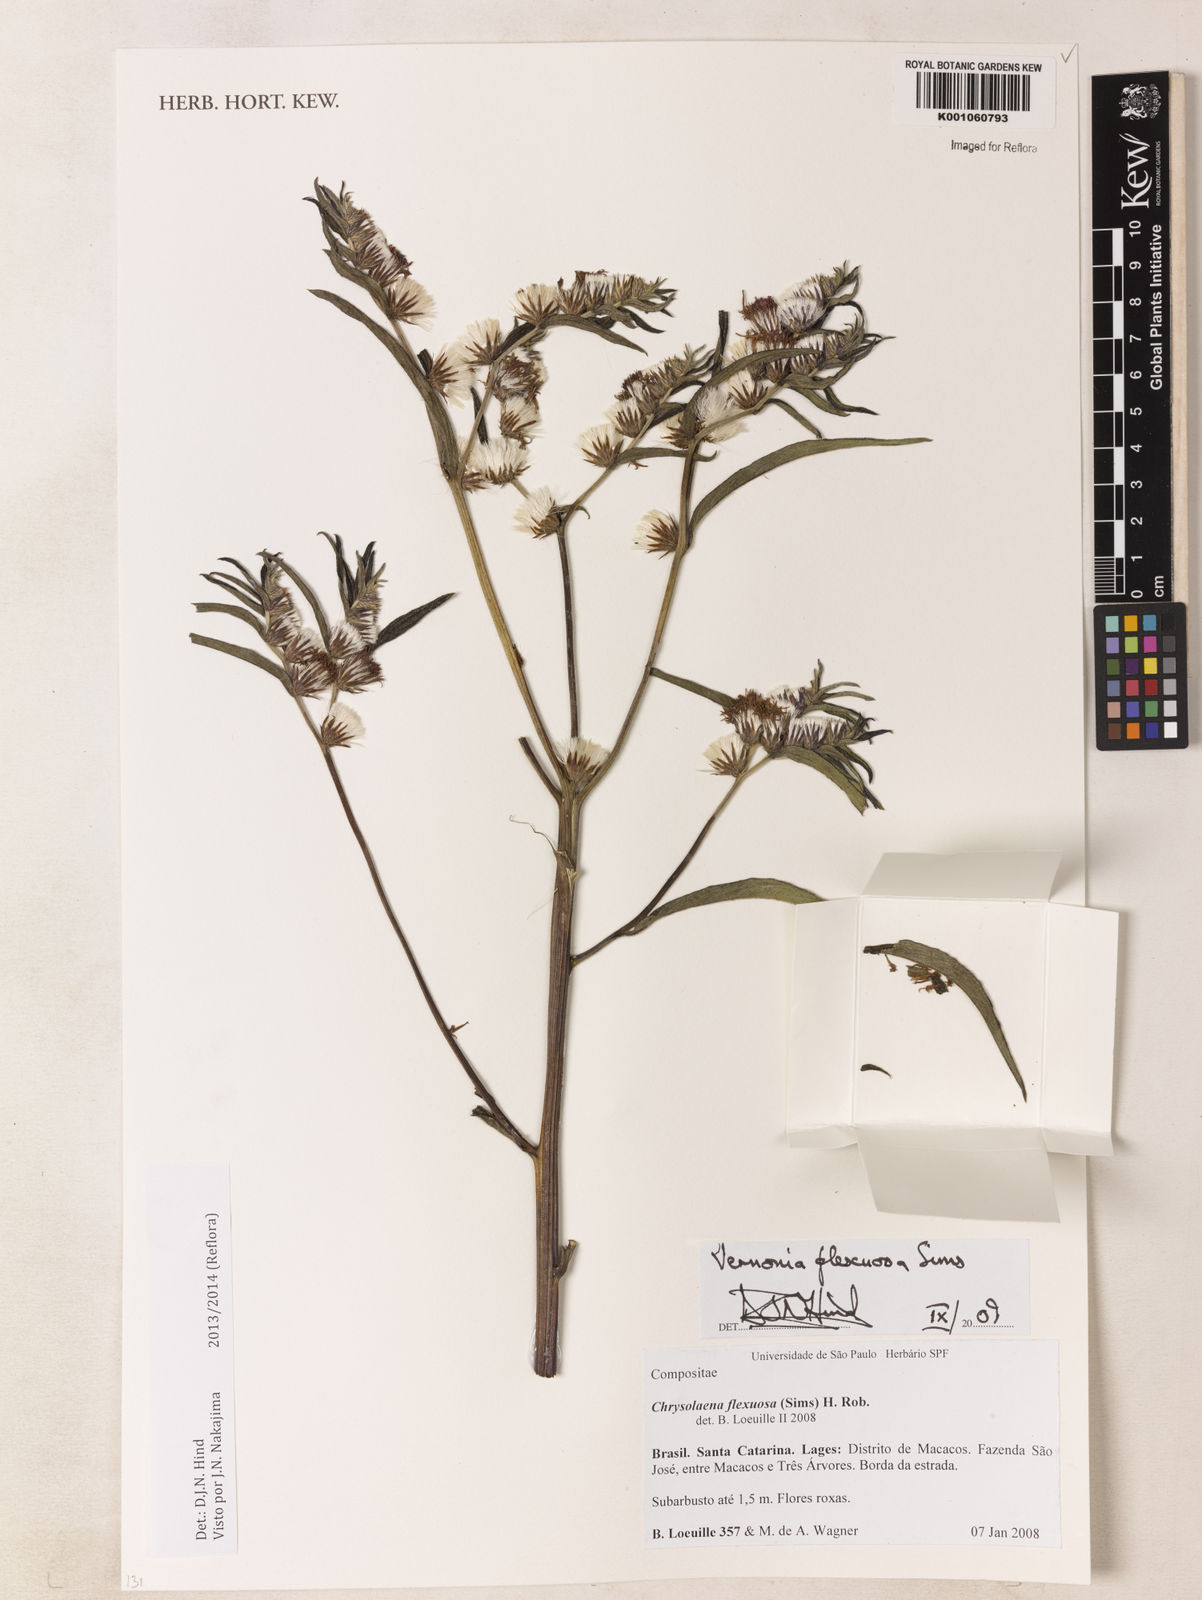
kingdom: Plantae
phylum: Tracheophyta
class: Magnoliopsida
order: Asterales
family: Asteraceae
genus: Chrysolaena
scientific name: Chrysolaena flexuosa
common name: Zig-zag vernonia
